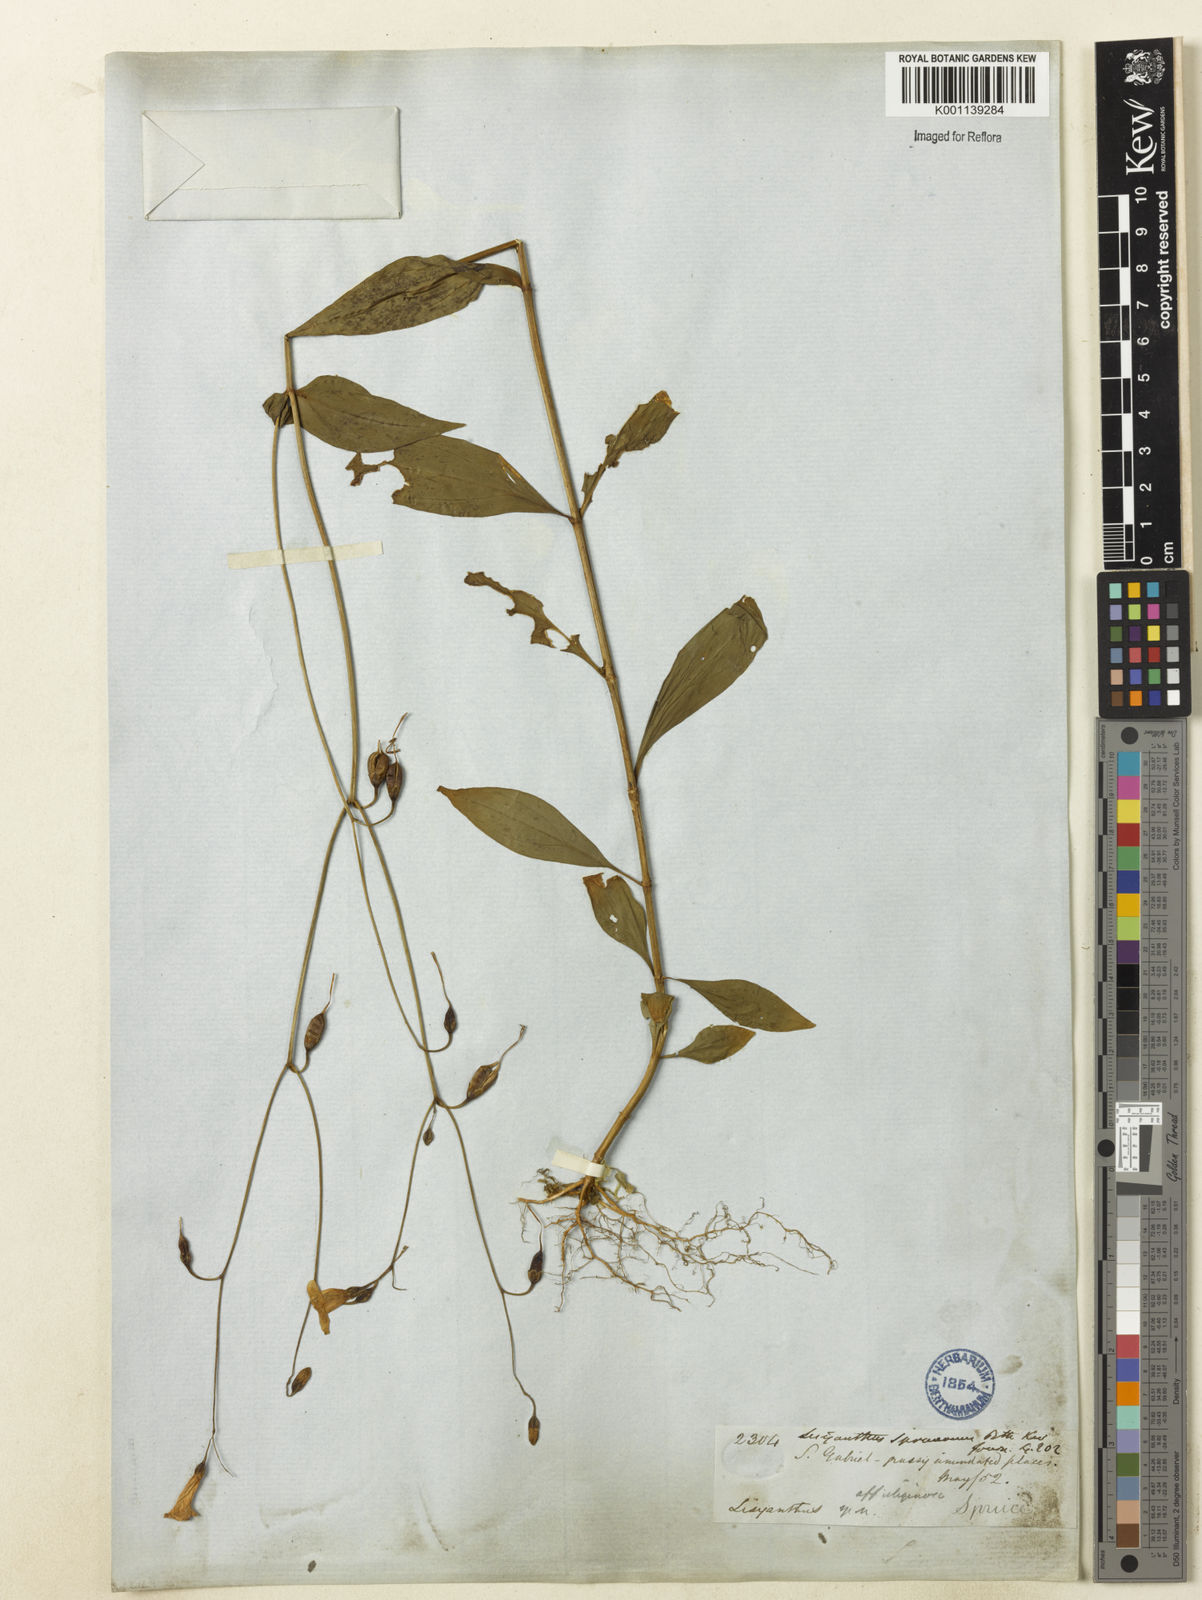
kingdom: Plantae
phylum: Tracheophyta
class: Magnoliopsida
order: Gentianales
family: Gentianaceae
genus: Chelonanthus
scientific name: Chelonanthus purpurascens
